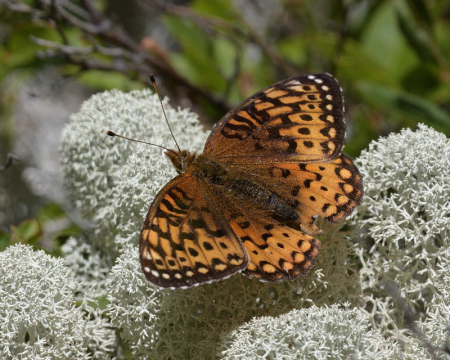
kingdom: Animalia
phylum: Arthropoda
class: Insecta
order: Lepidoptera
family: Nymphalidae
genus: Speyeria
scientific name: Speyeria atlantis
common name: Atlantis Fritillary
